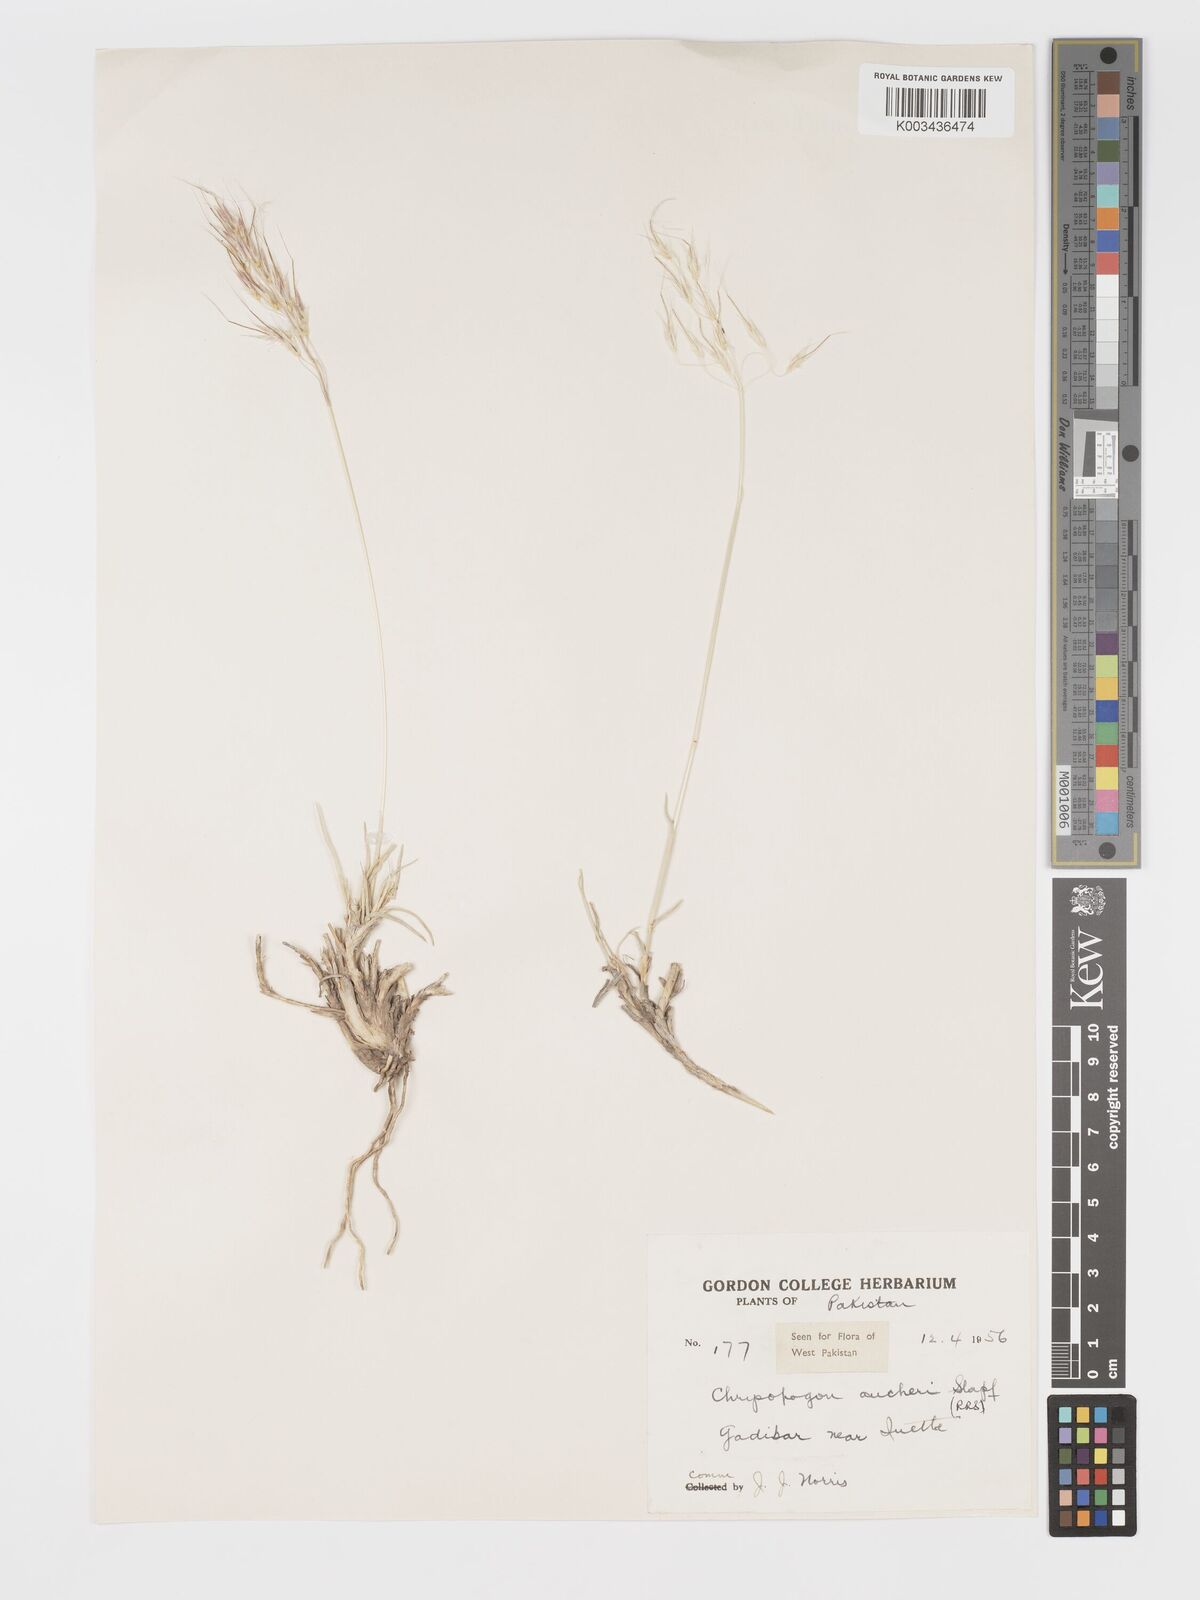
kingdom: Plantae
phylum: Tracheophyta
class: Liliopsida
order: Poales
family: Poaceae
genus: Chrysopogon
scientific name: Chrysopogon aucheri
